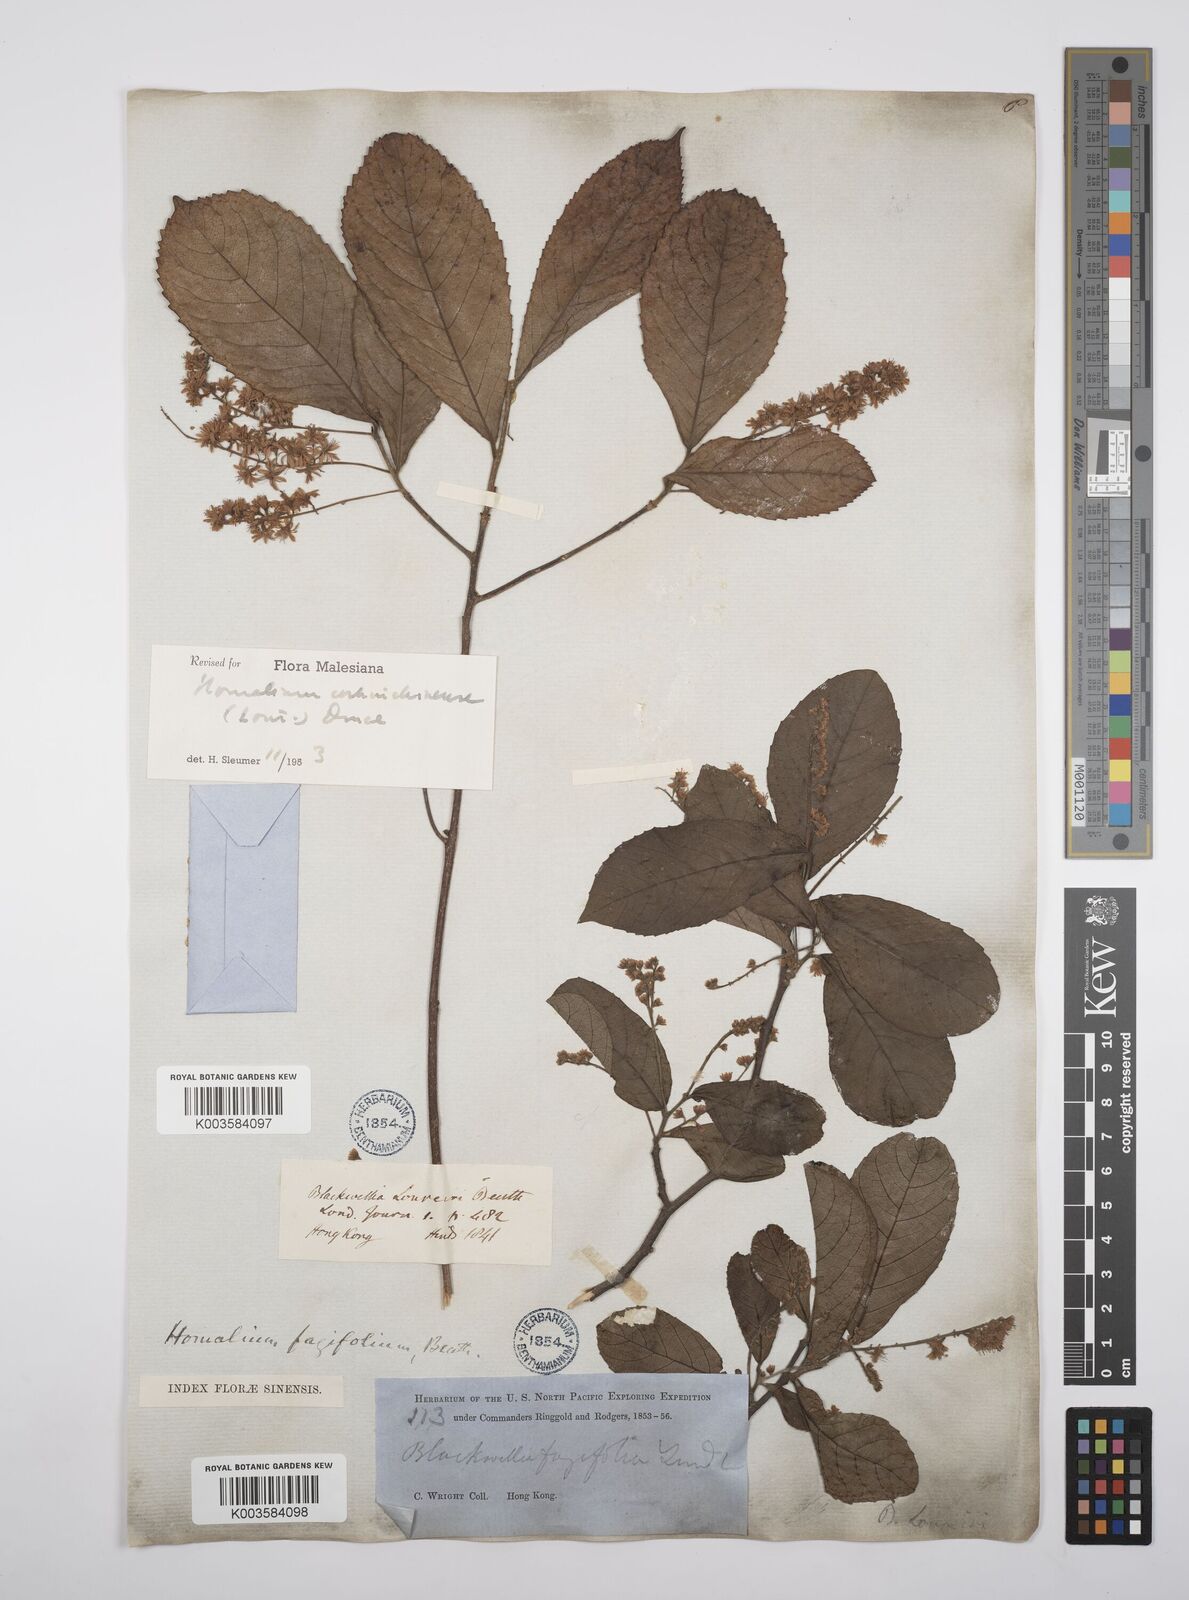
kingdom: Plantae
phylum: Tracheophyta
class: Magnoliopsida
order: Malpighiales
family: Salicaceae
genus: Homalium
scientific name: Homalium cochinchinensis
